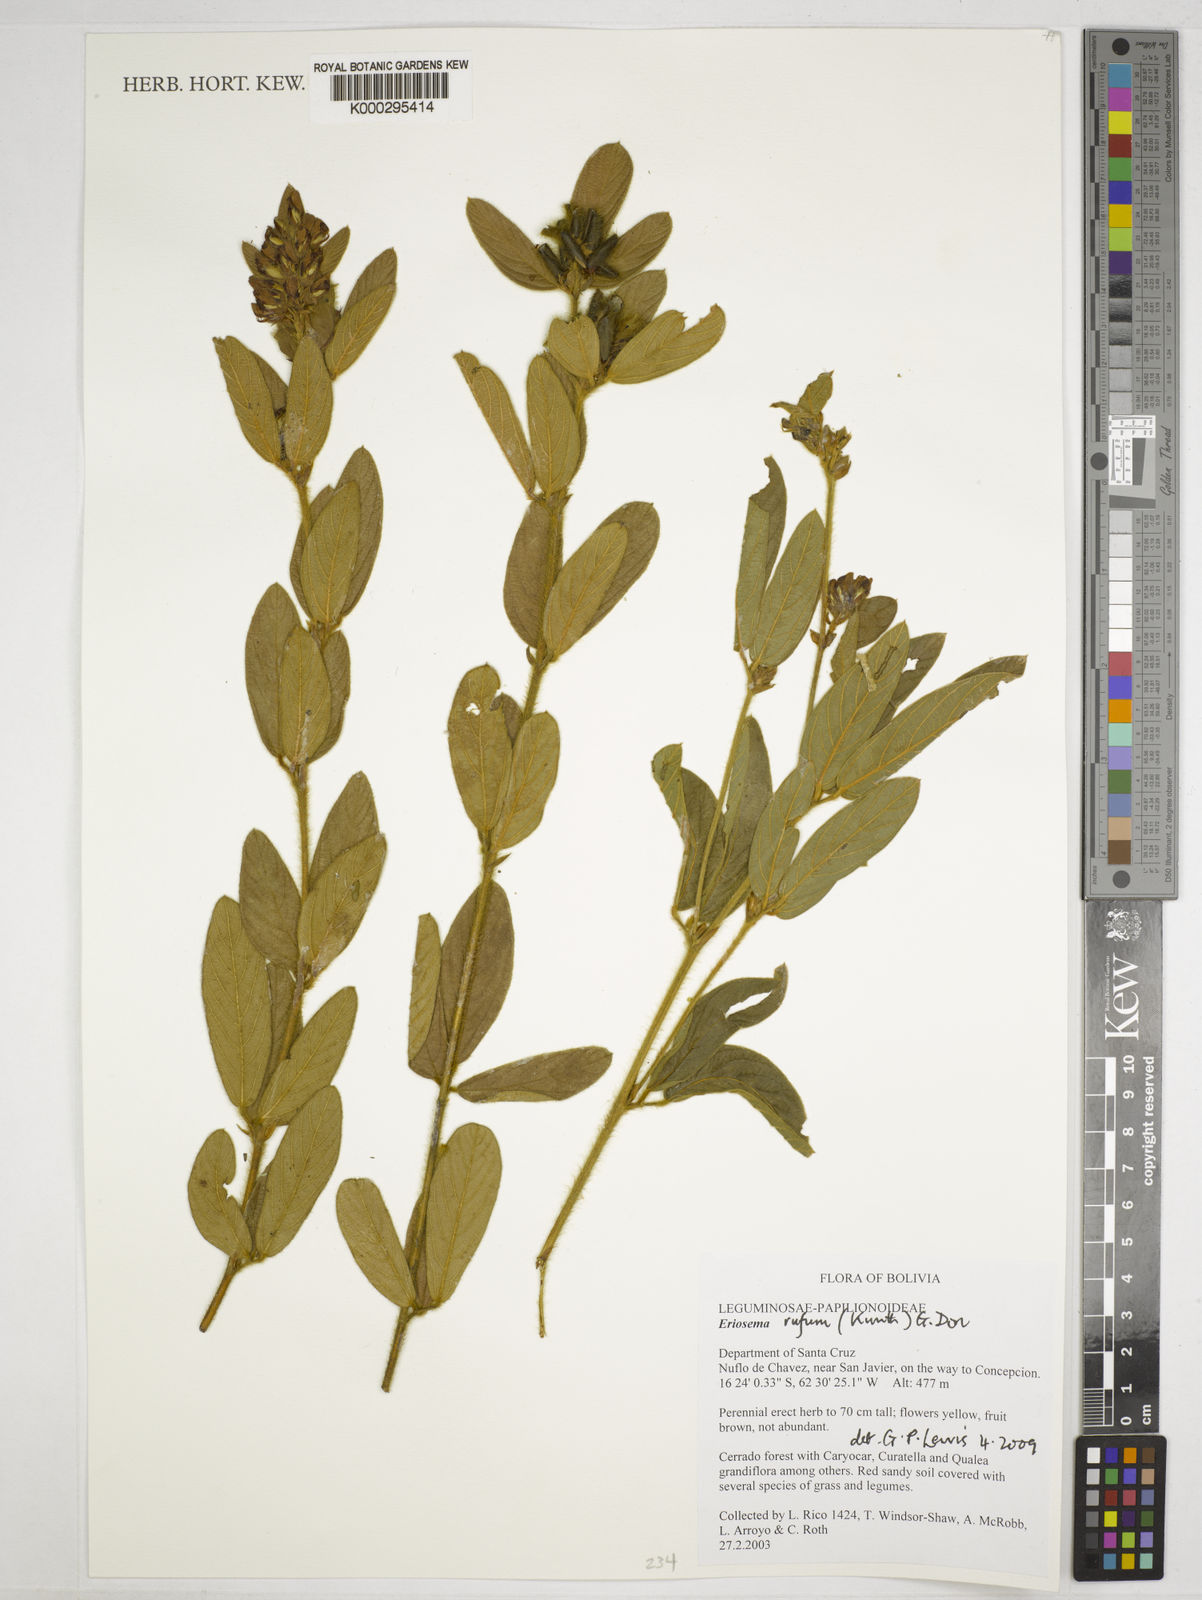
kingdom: Plantae
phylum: Tracheophyta
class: Magnoliopsida
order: Fabales
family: Fabaceae
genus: Eriosema
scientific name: Eriosema rufum
